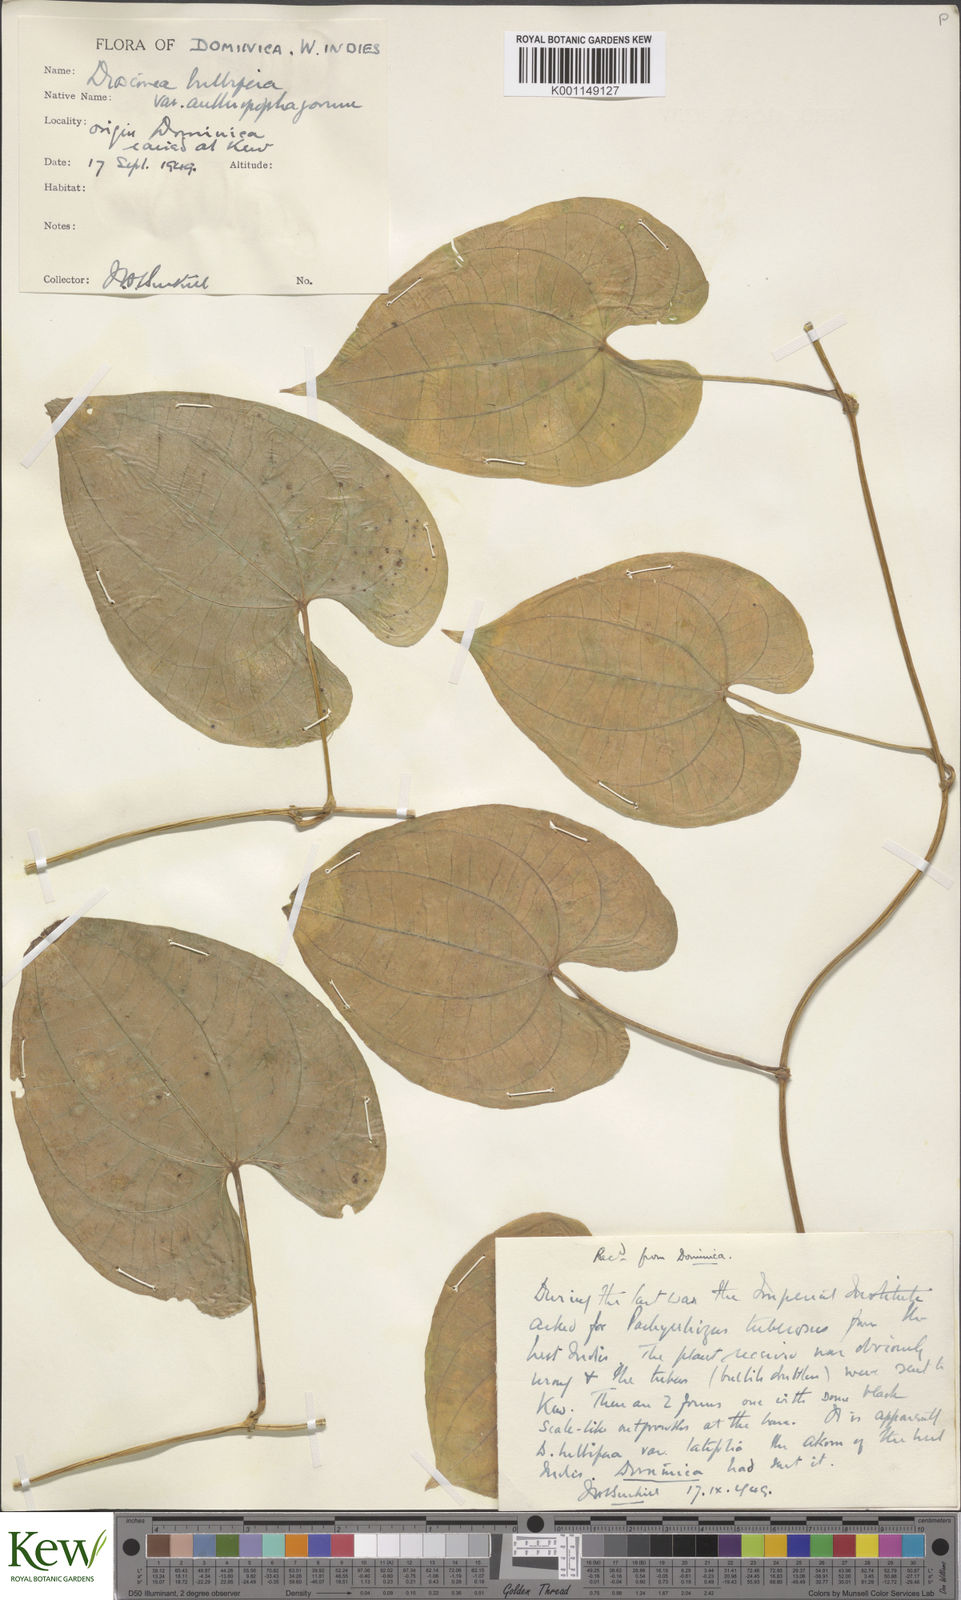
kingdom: Plantae
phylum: Tracheophyta
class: Liliopsida
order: Dioscoreales
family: Dioscoreaceae
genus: Dioscorea
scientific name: Dioscorea bulbifera
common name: Air yam
